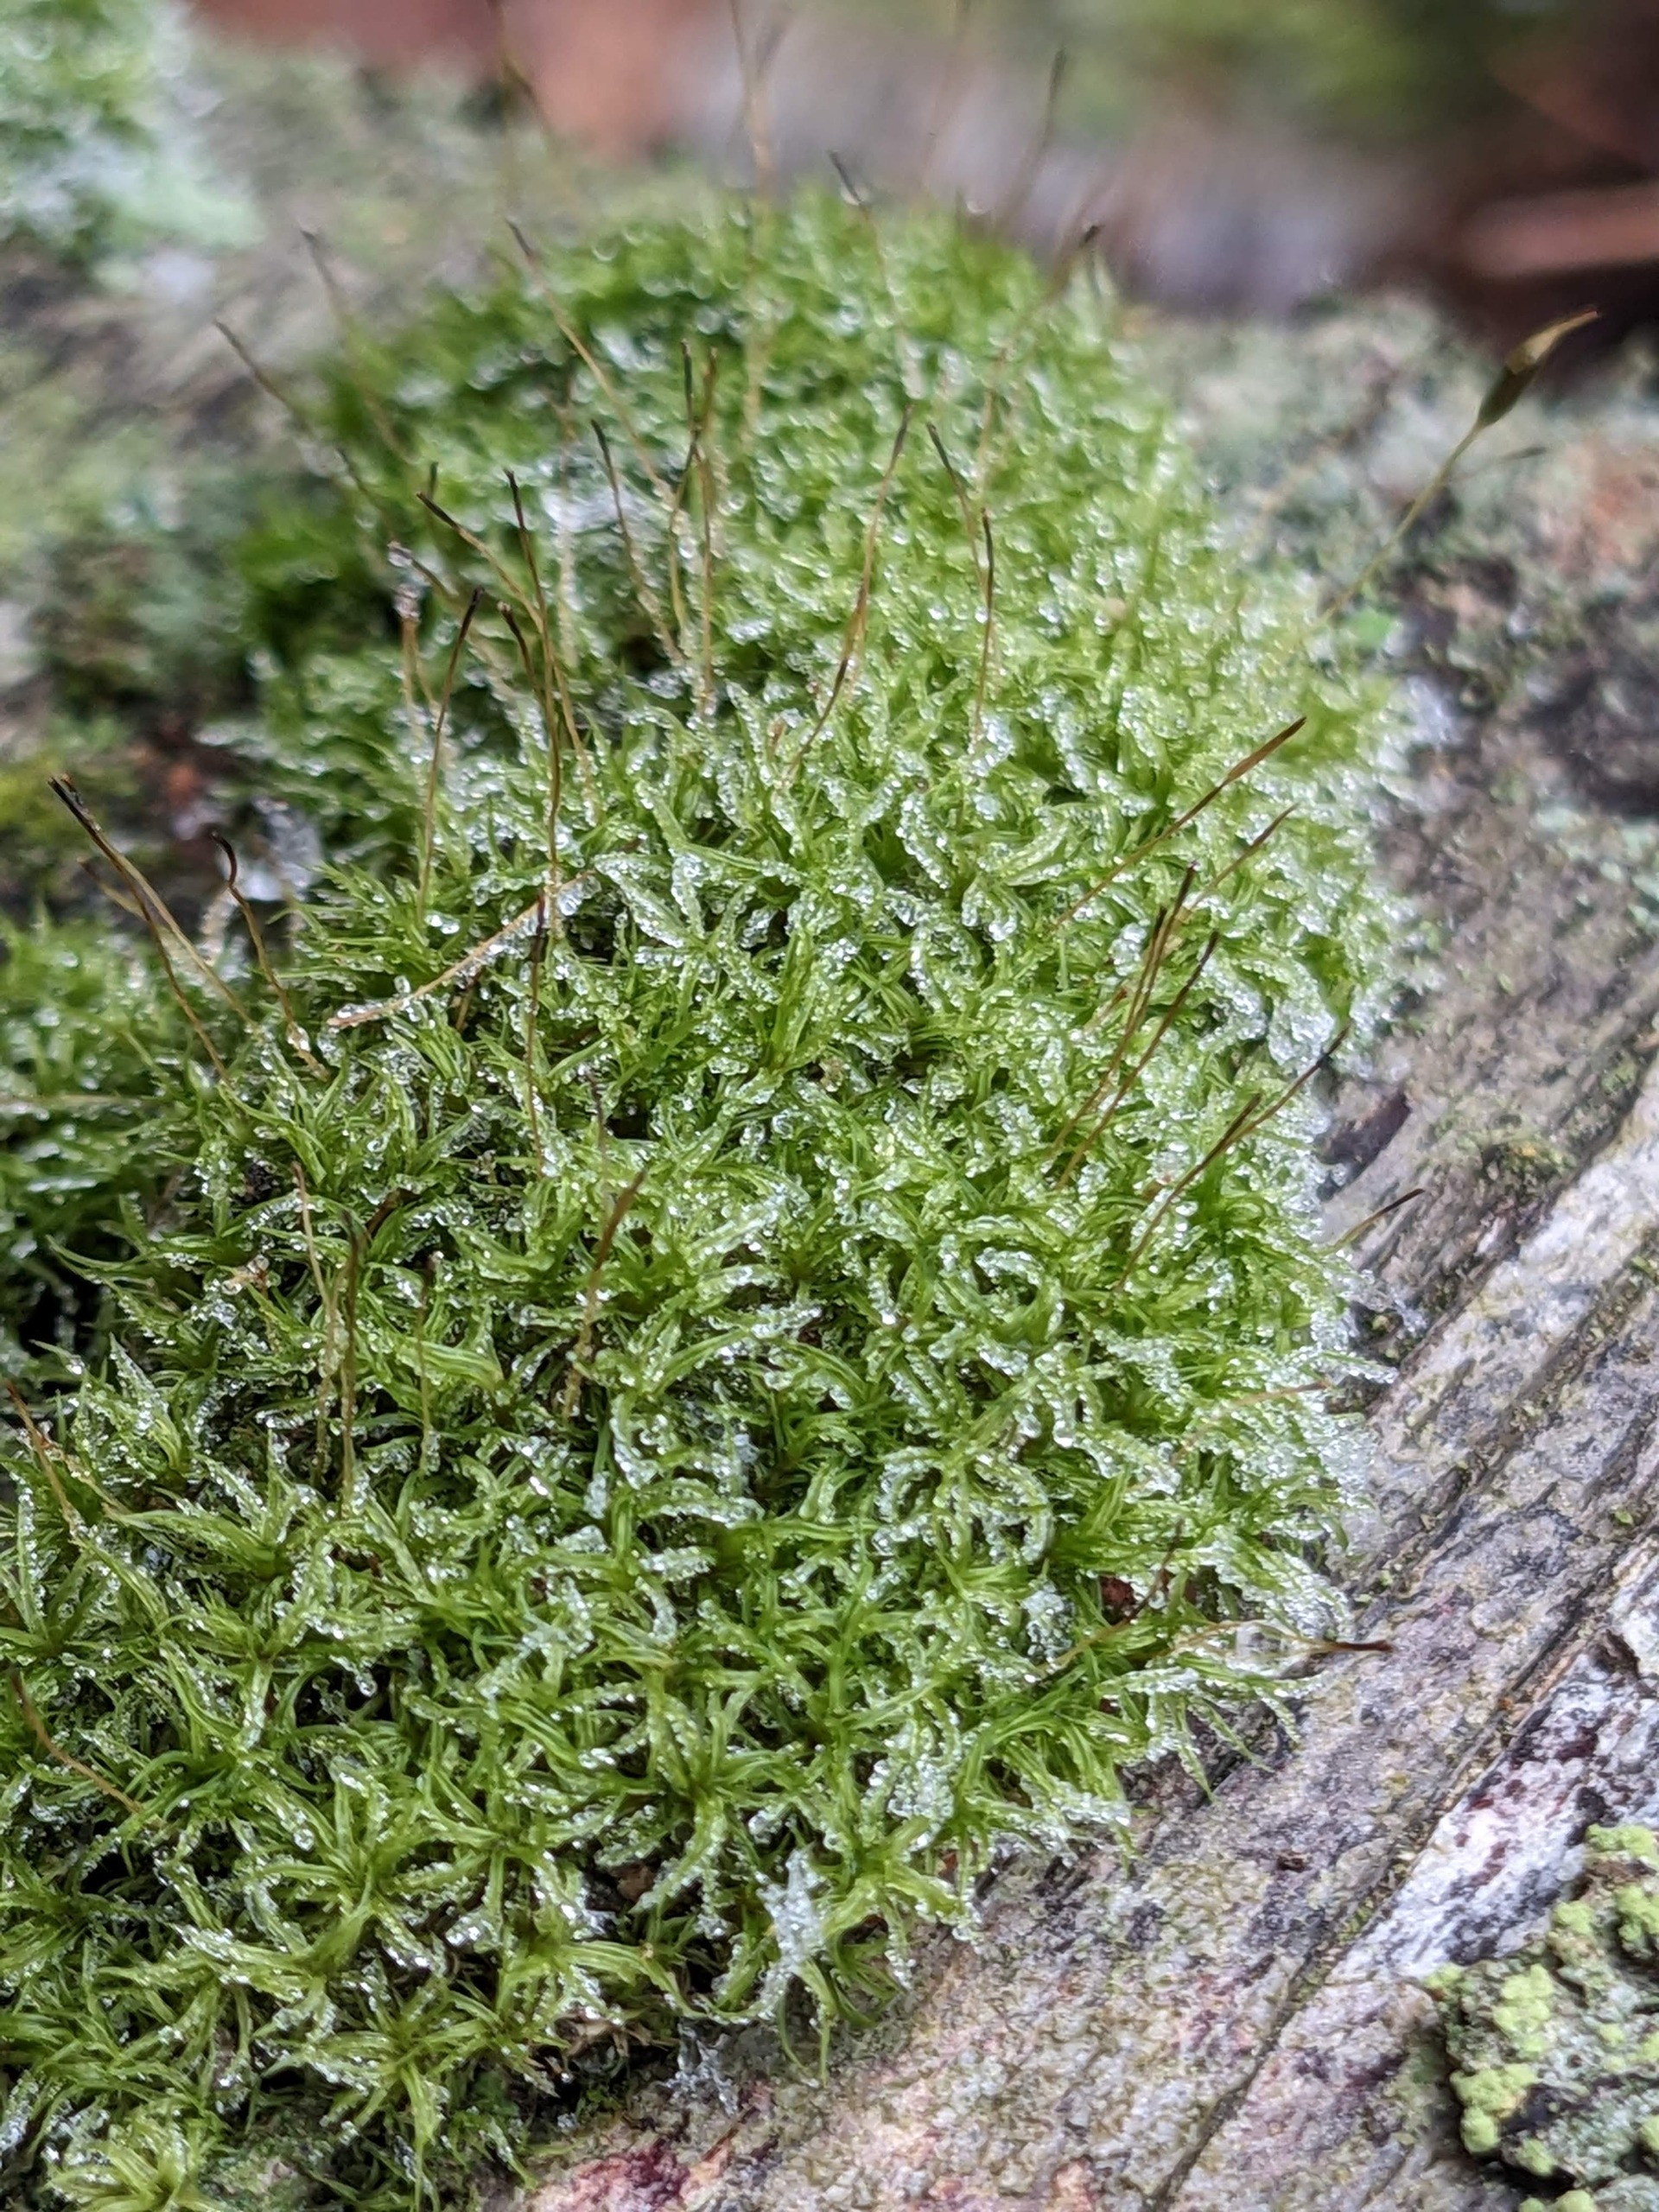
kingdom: Plantae
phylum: Bryophyta
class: Bryopsida
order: Dicranales
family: Rhabdoweisiaceae
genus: Dicranoweisia
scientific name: Dicranoweisia cirrata
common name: Almindelig krøltuemos
